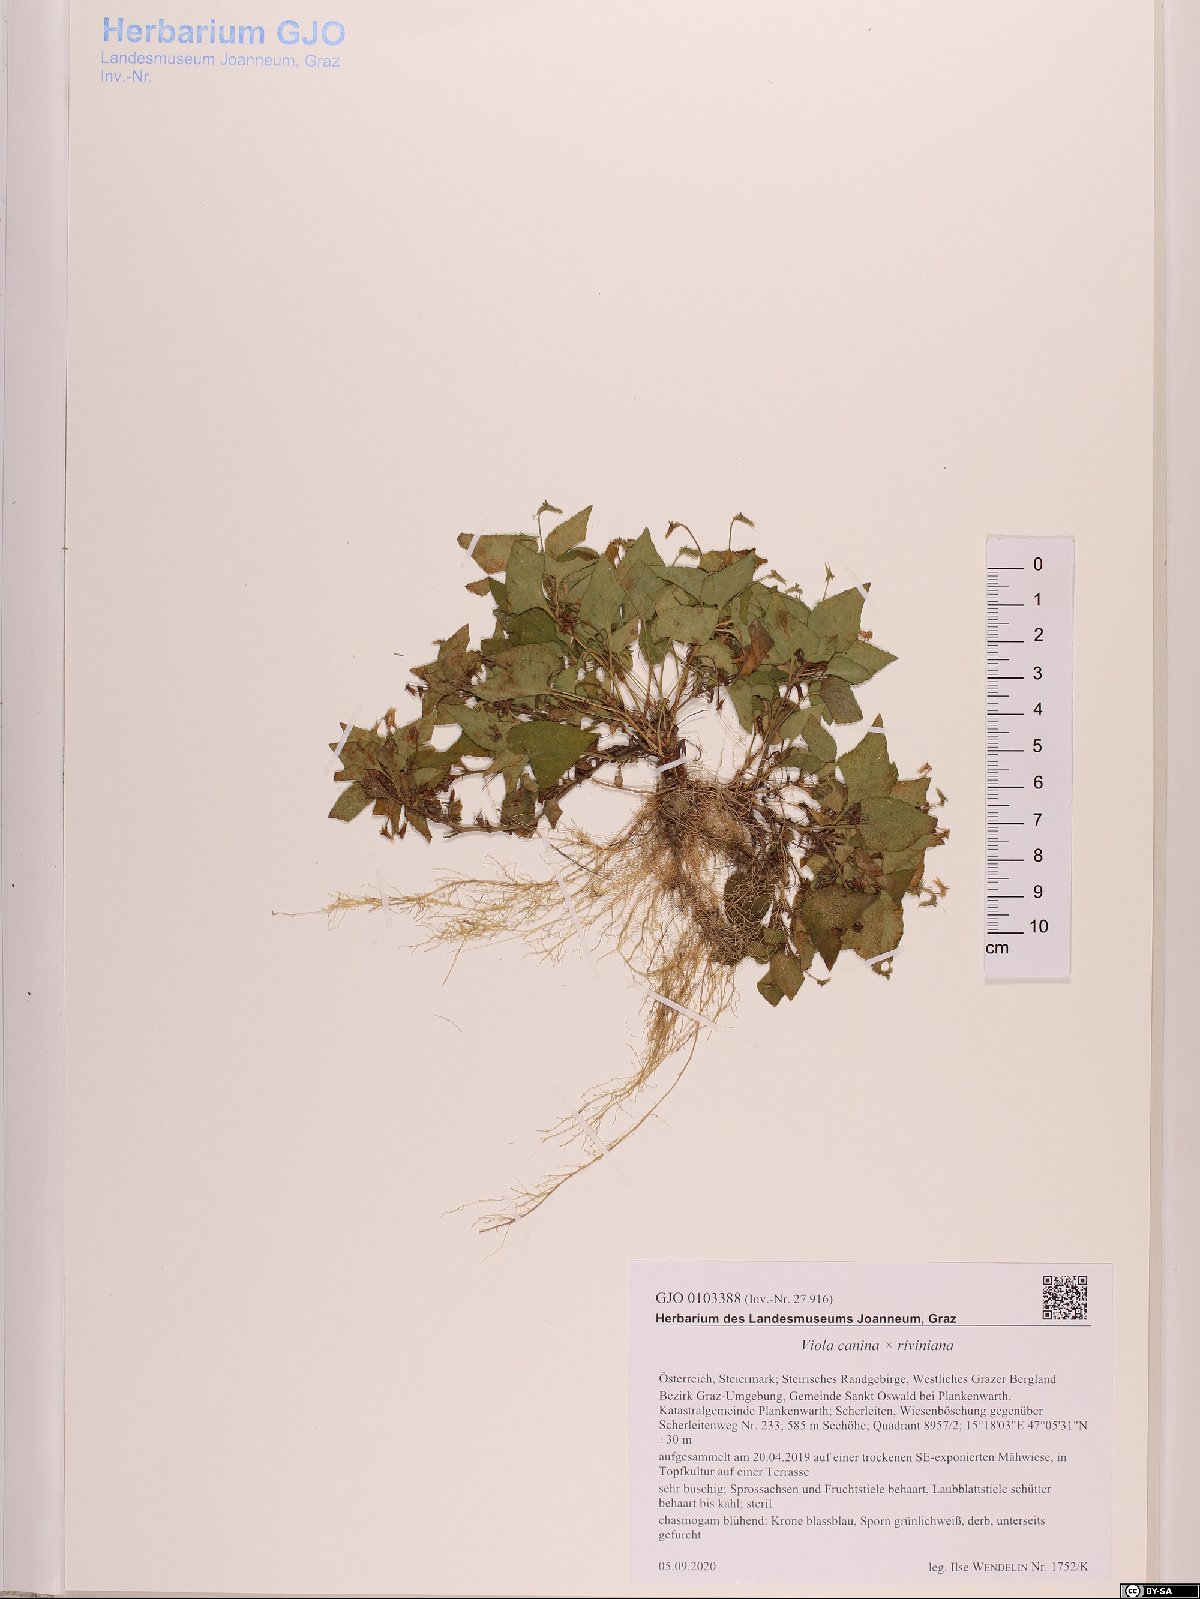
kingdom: Plantae
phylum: Tracheophyta
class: Magnoliopsida
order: Malpighiales
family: Violaceae
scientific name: Violaceae
